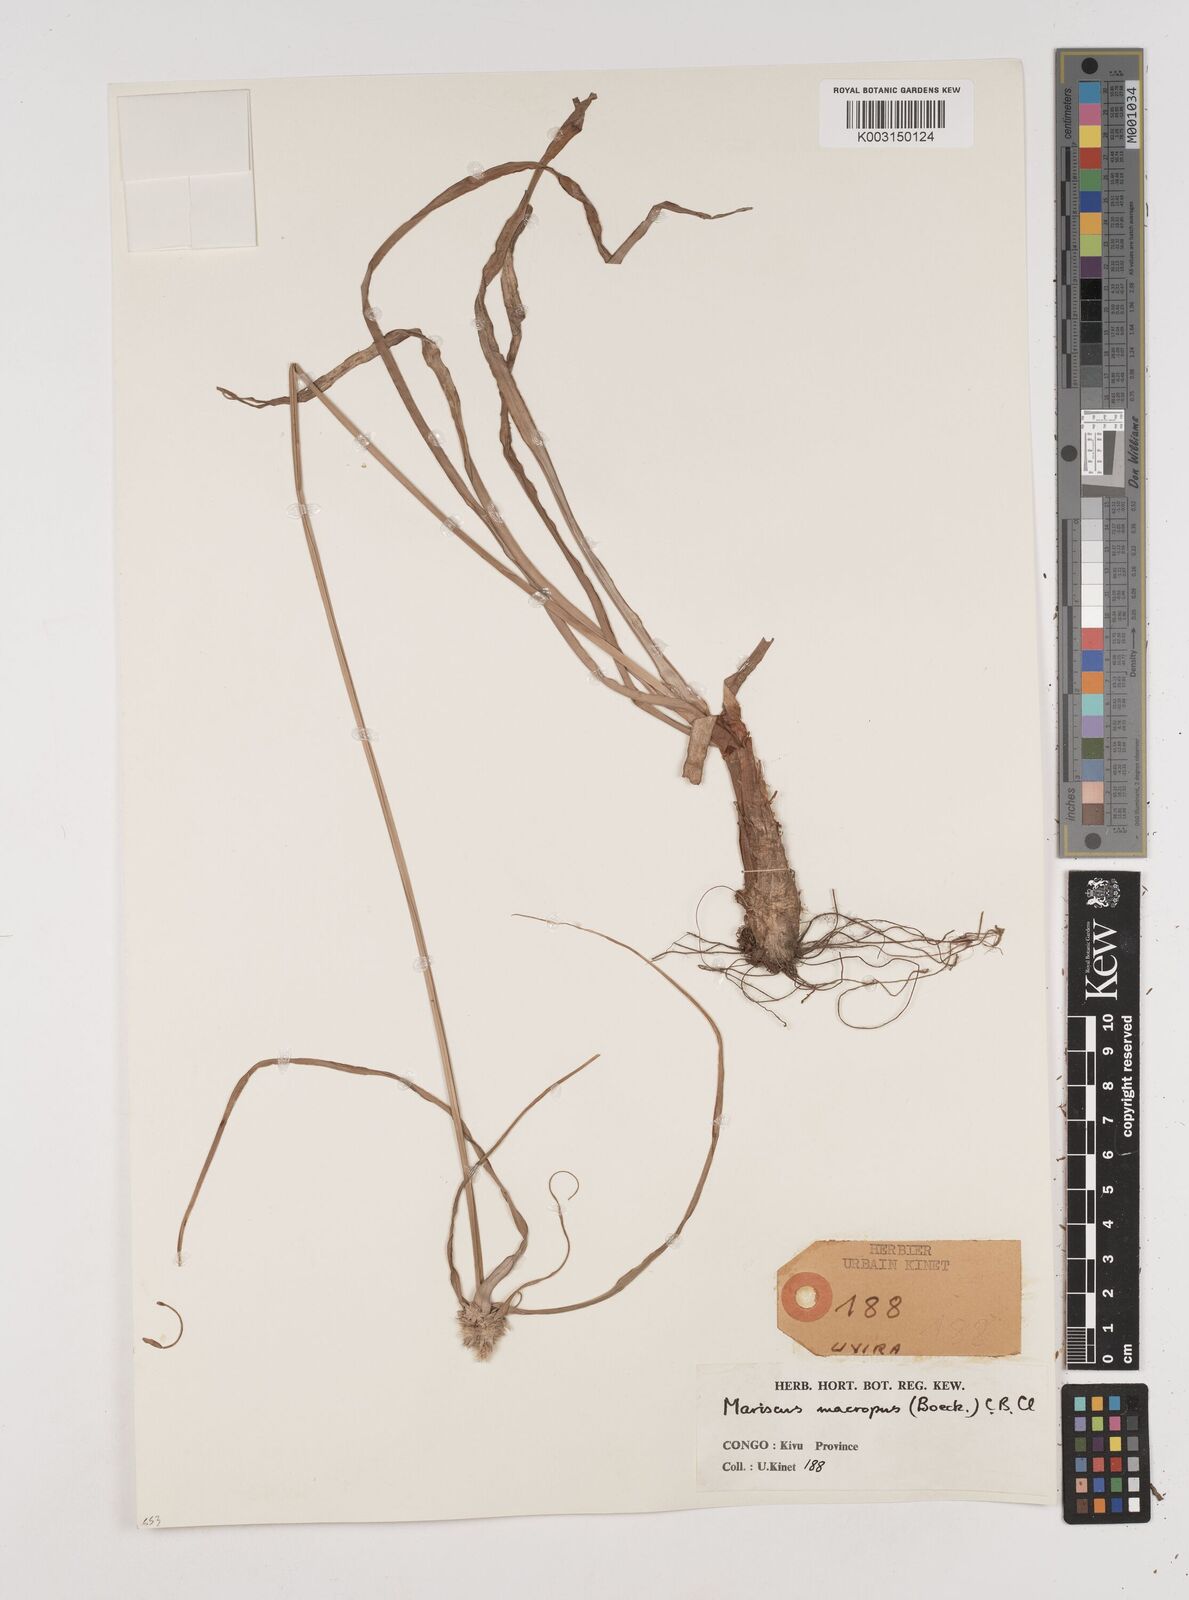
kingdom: Plantae
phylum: Tracheophyta
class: Liliopsida
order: Poales
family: Cyperaceae
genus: Cyperus
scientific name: Cyperus mollipes
